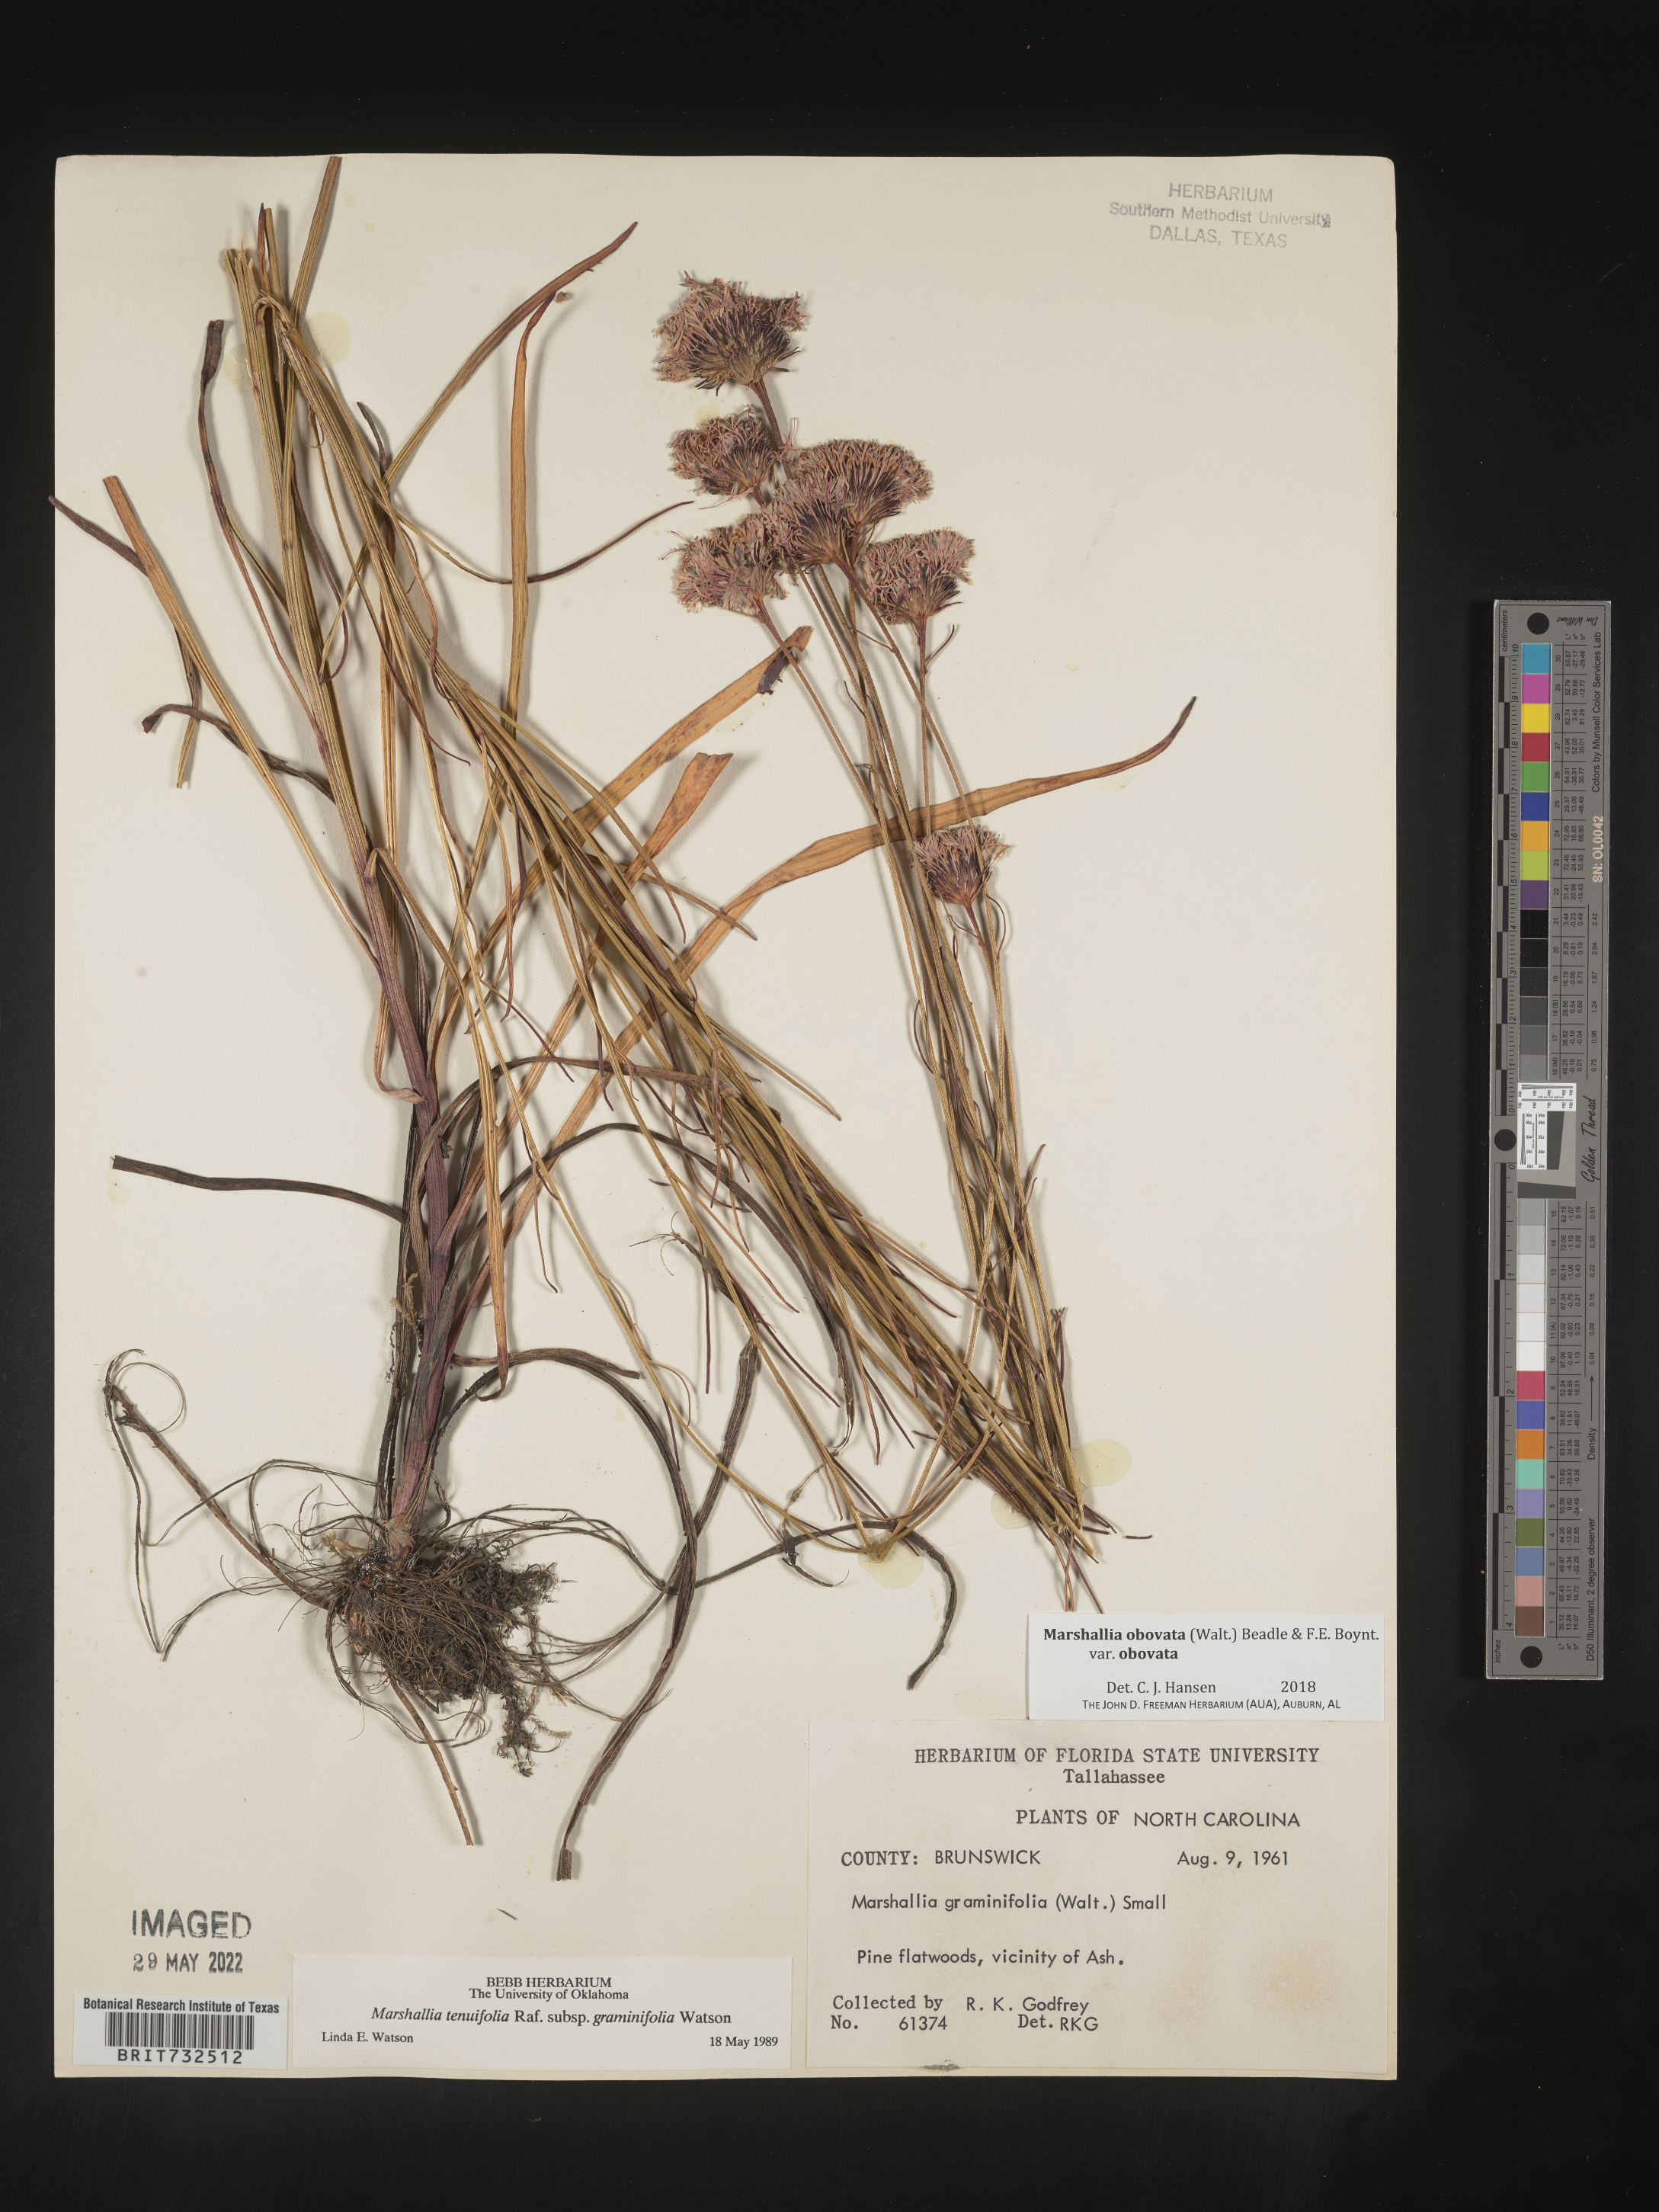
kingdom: Plantae
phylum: Tracheophyta
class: Magnoliopsida
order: Asterales
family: Asteraceae
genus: Marshallia
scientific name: Marshallia obovata
